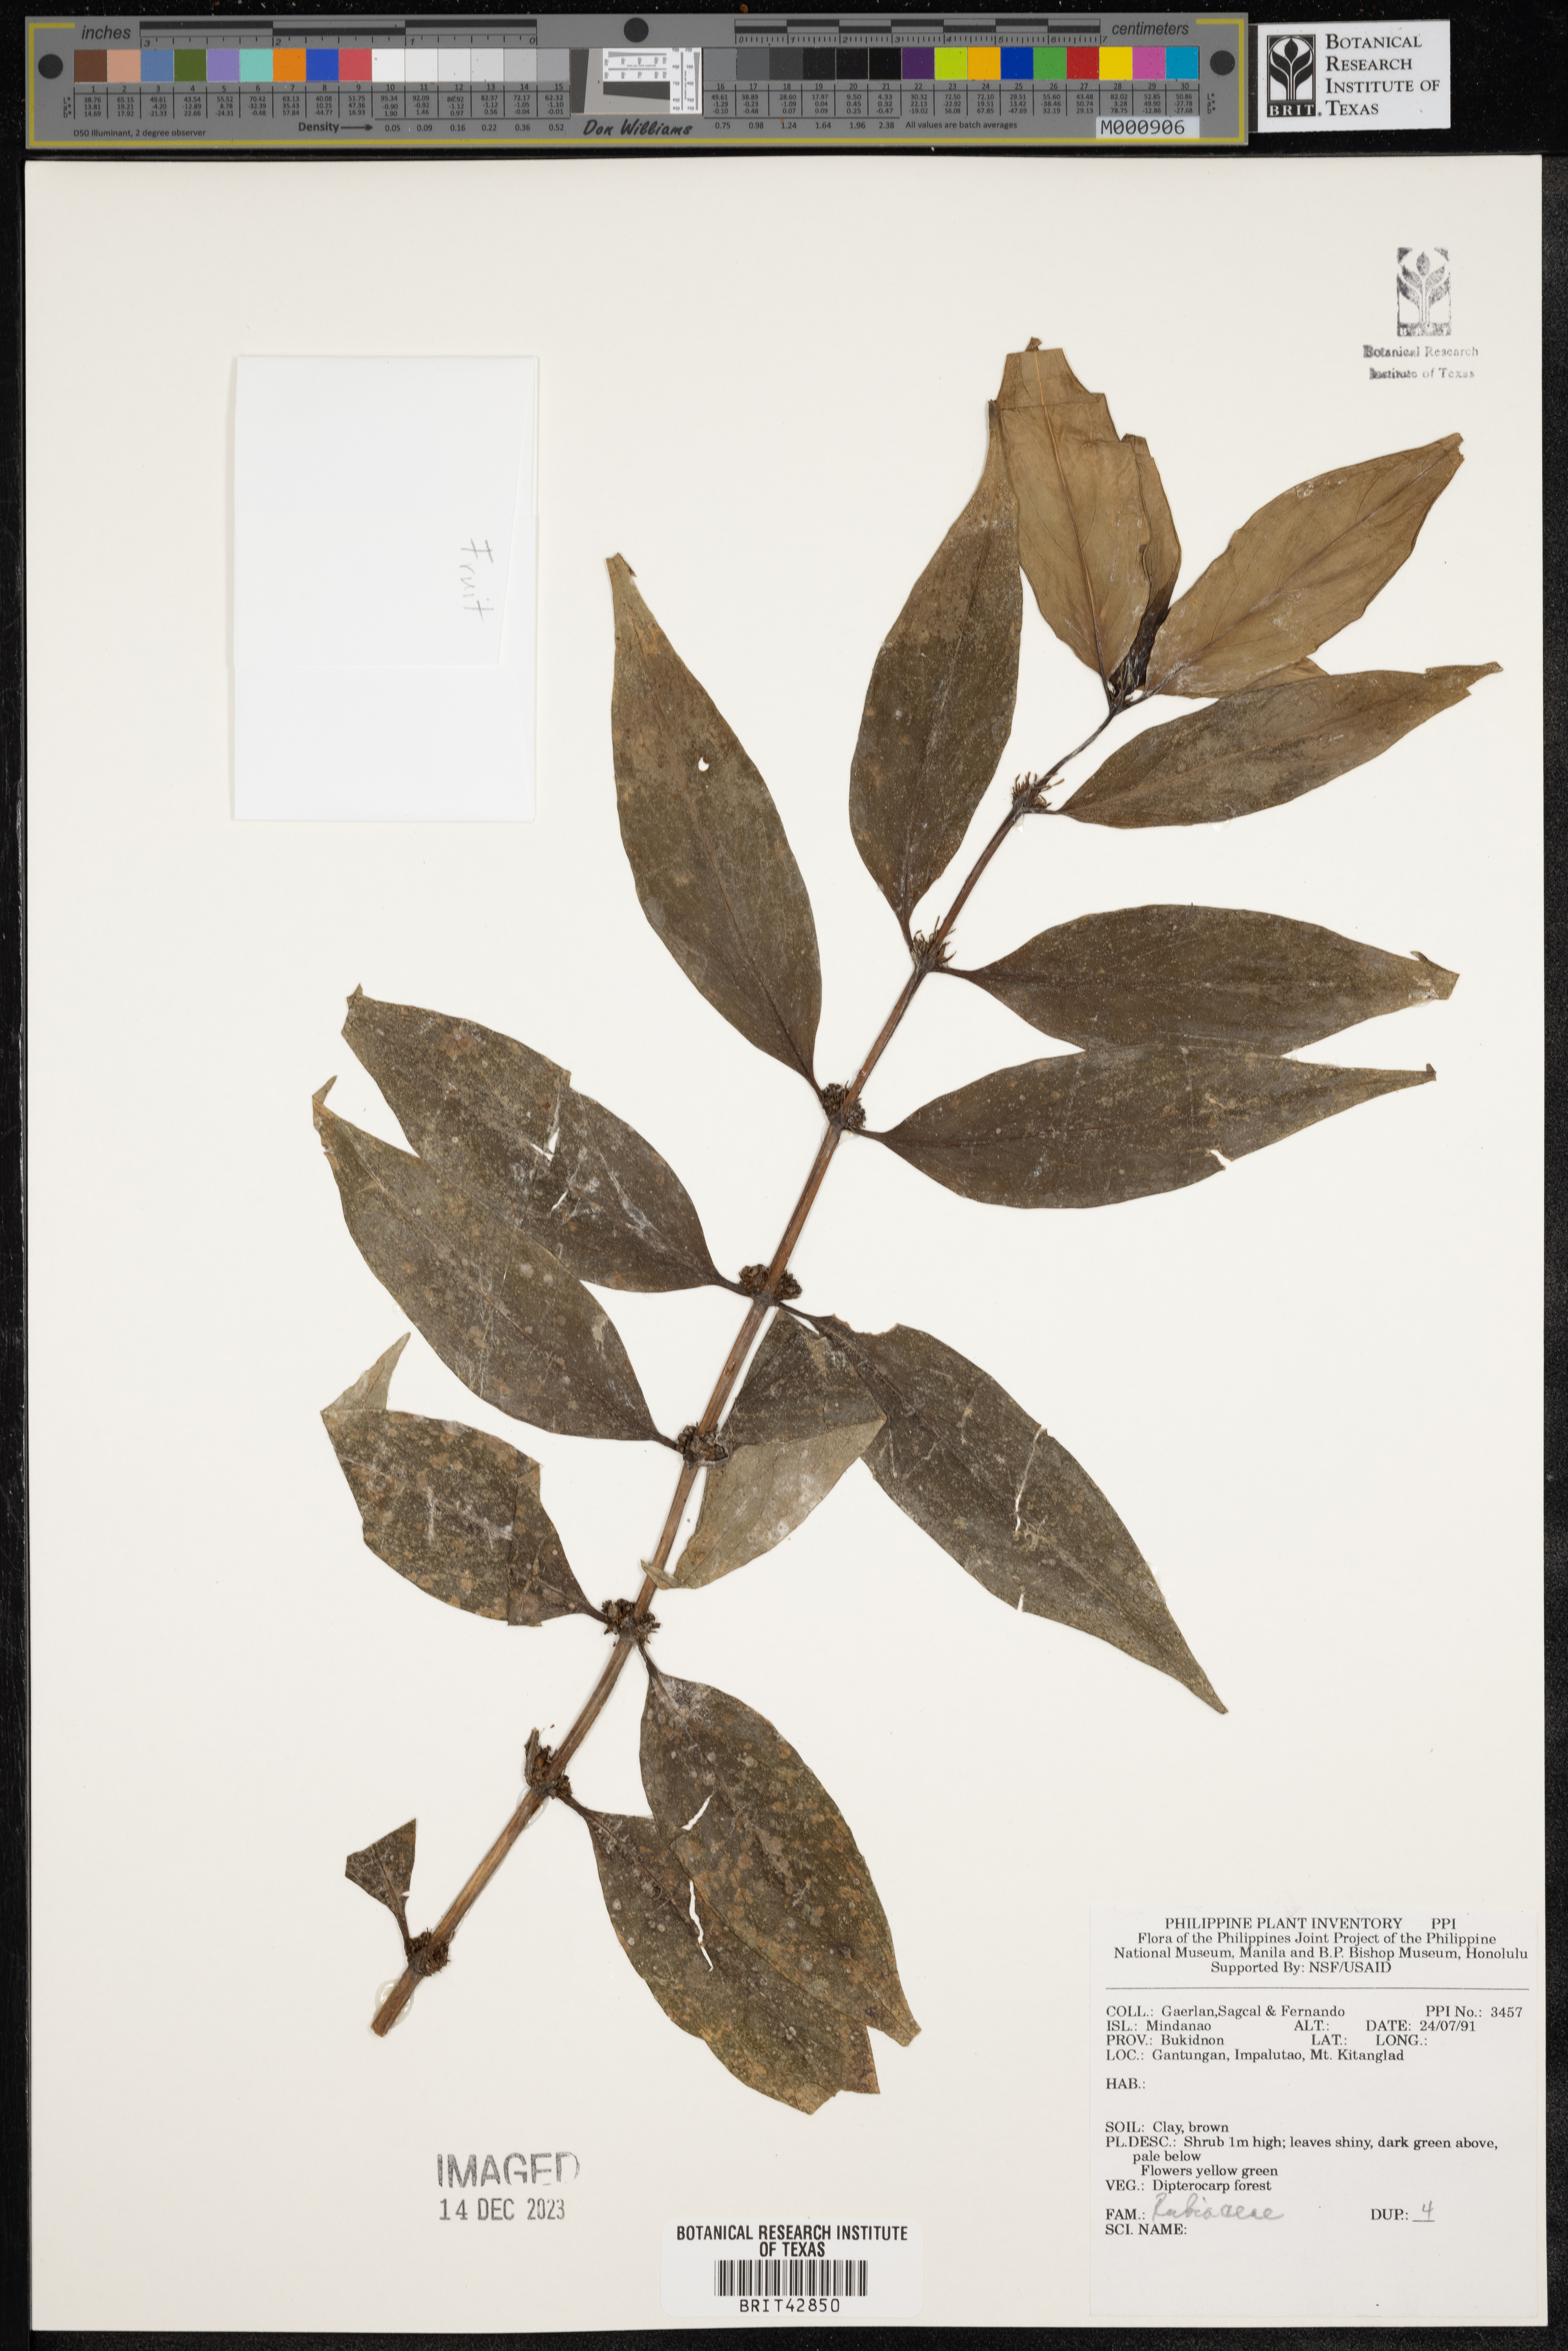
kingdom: Plantae
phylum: Tracheophyta
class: Magnoliopsida
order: Gentianales
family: Rubiaceae
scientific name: Rubiaceae
